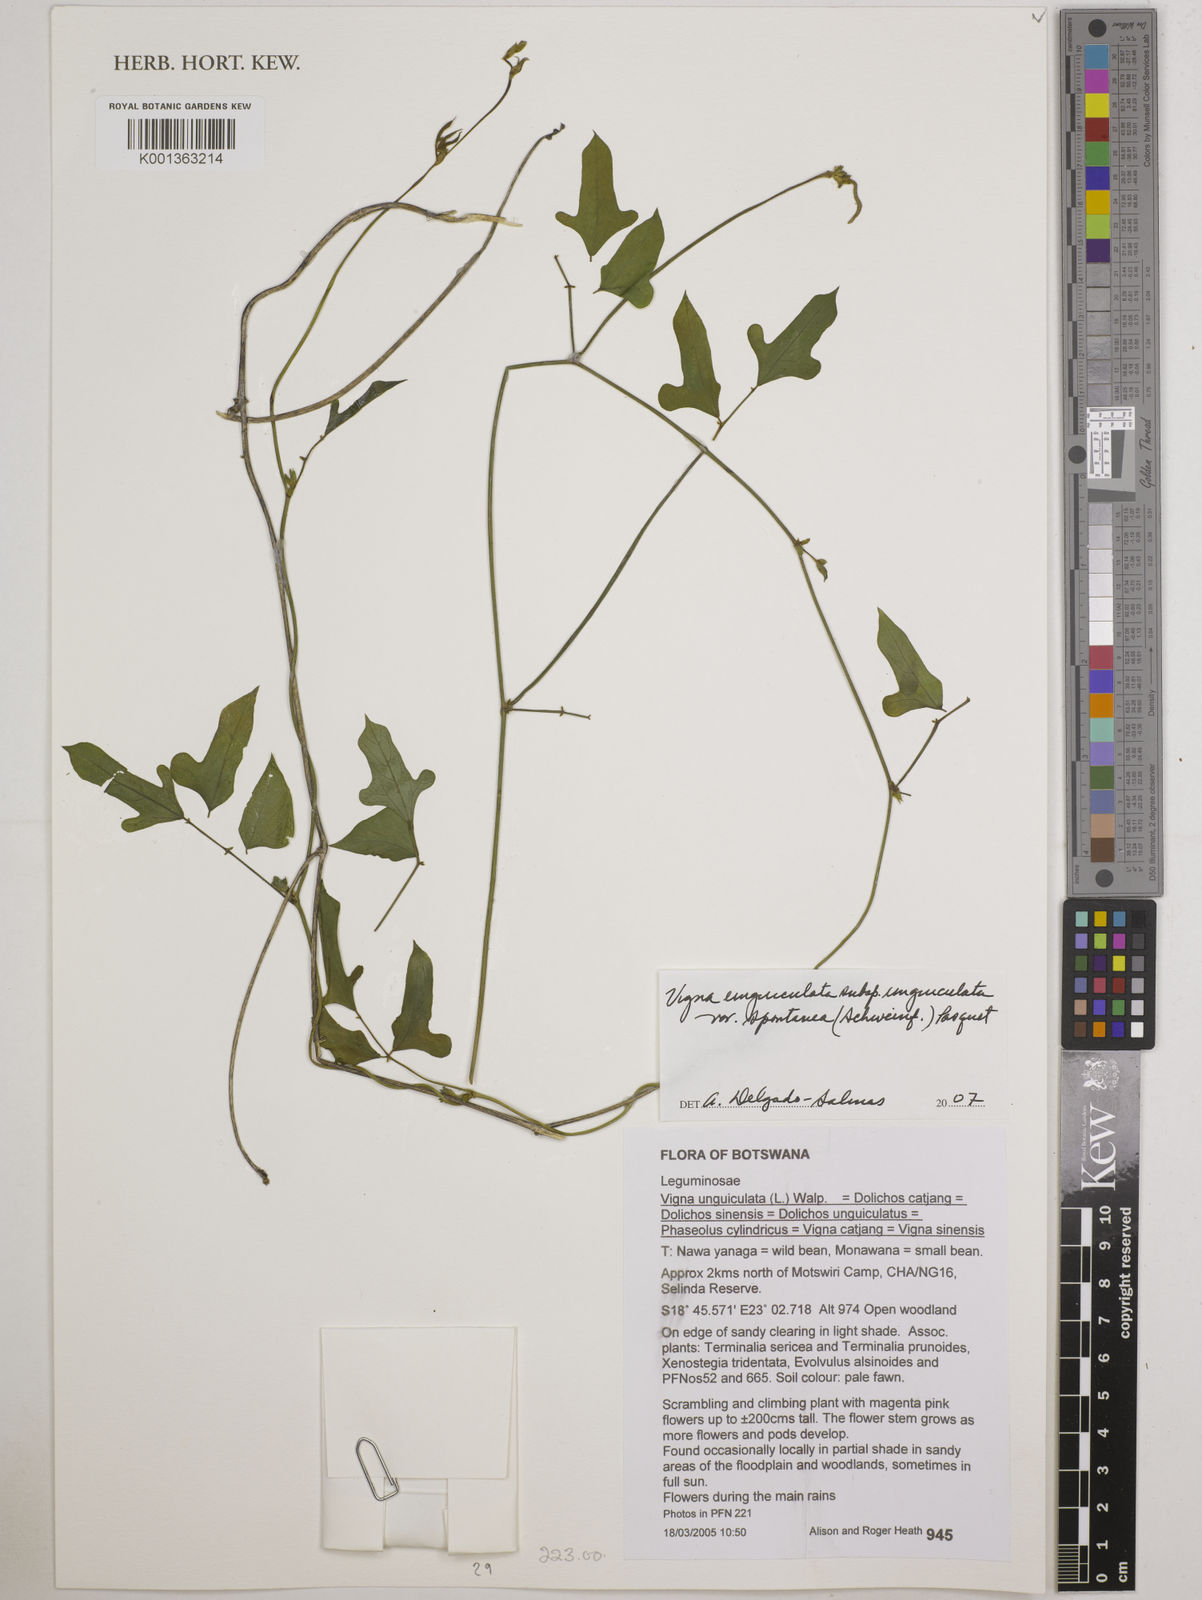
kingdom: Plantae
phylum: Tracheophyta
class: Magnoliopsida
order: Fabales
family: Fabaceae
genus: Vigna
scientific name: Vigna unguiculata
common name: Cowpea
